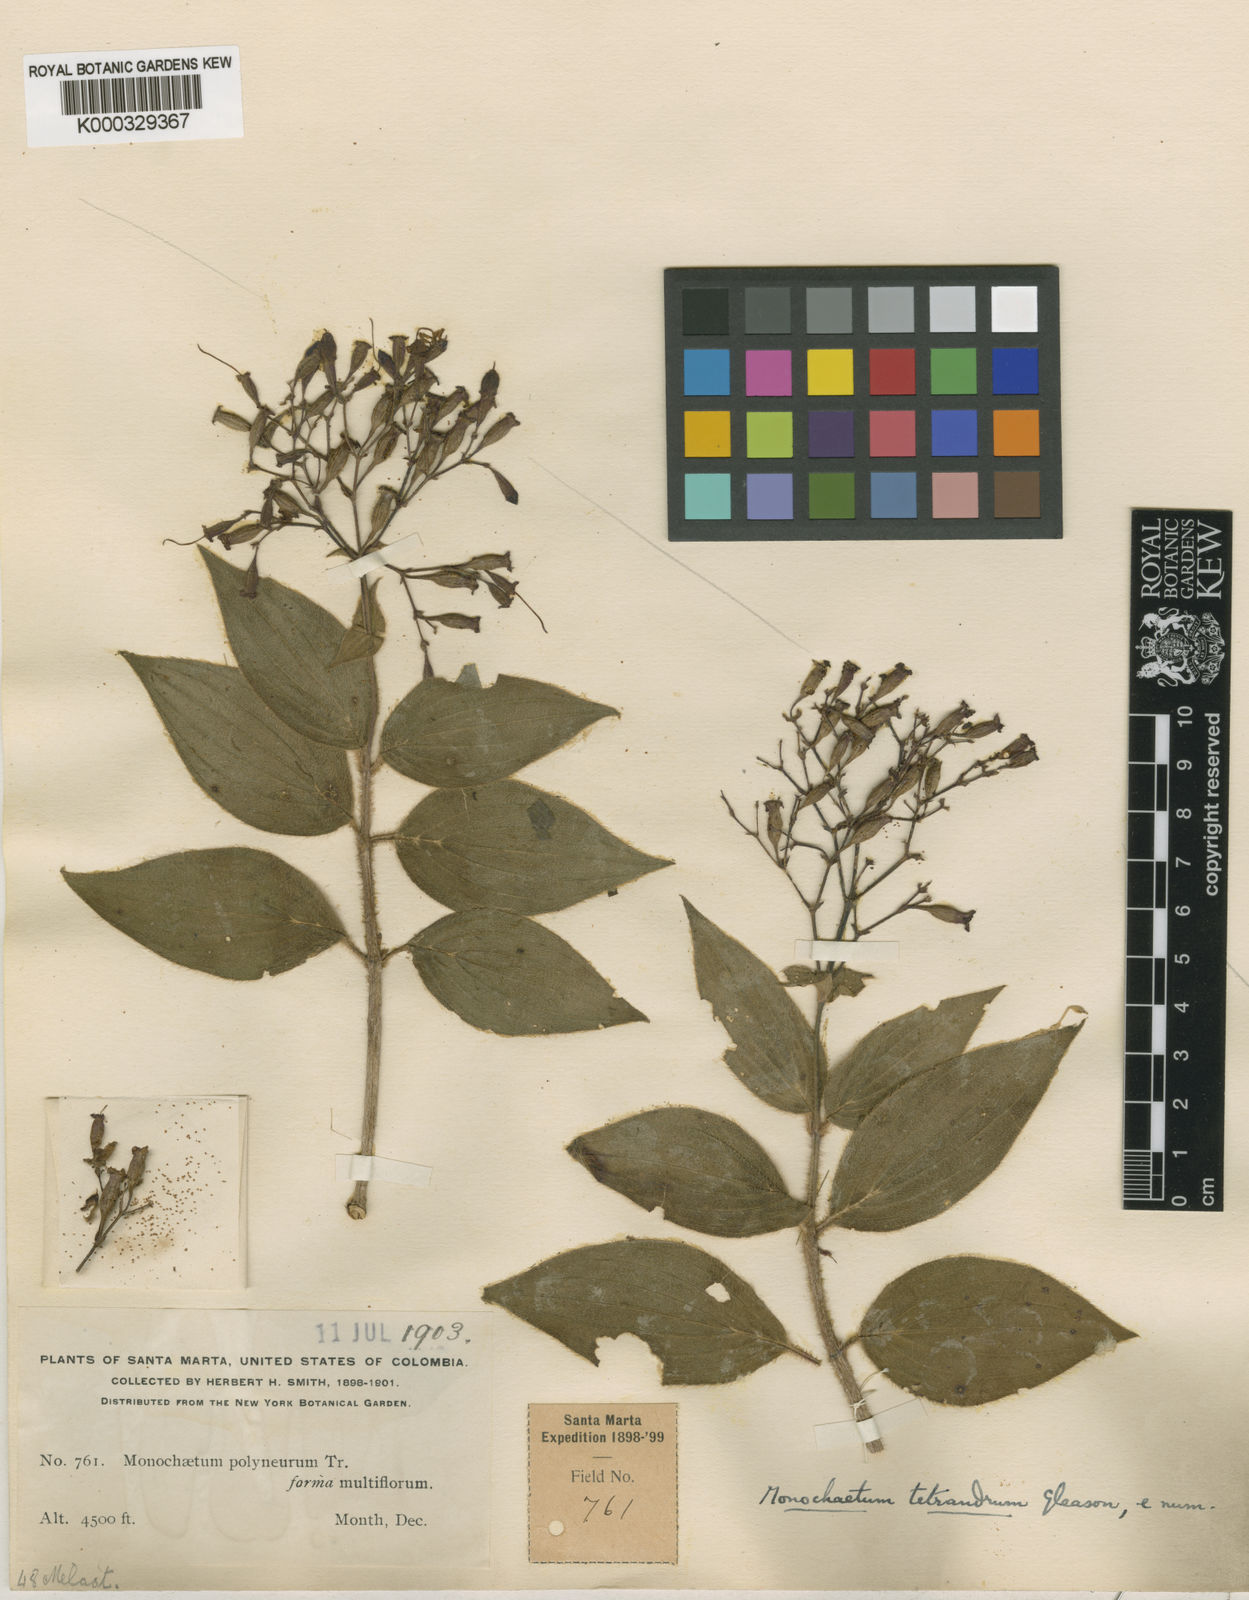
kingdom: Plantae
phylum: Tracheophyta
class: Magnoliopsida
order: Myrtales
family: Melastomataceae
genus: Monochaetum
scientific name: Monochaetum brachyurum
